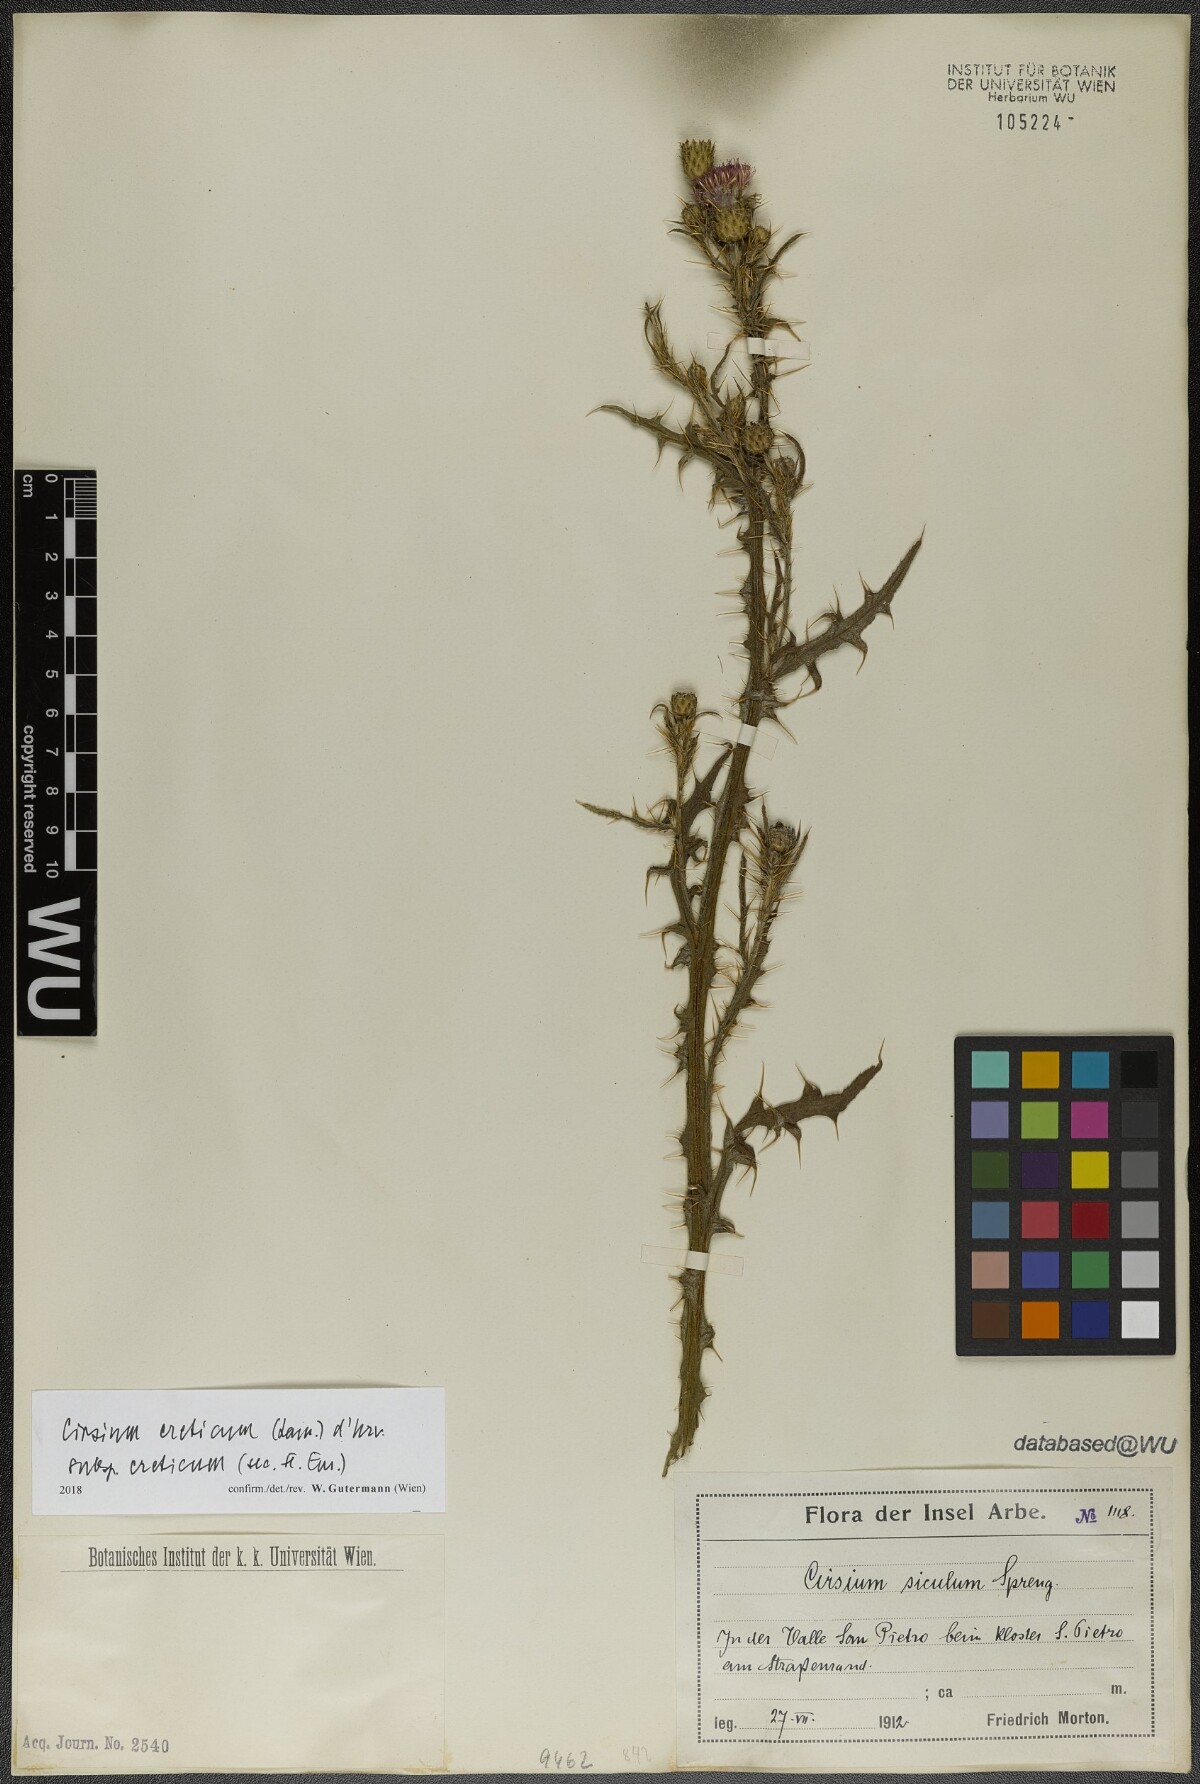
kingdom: Plantae
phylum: Tracheophyta
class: Magnoliopsida
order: Asterales
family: Asteraceae
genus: Cirsium
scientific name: Cirsium creticum
